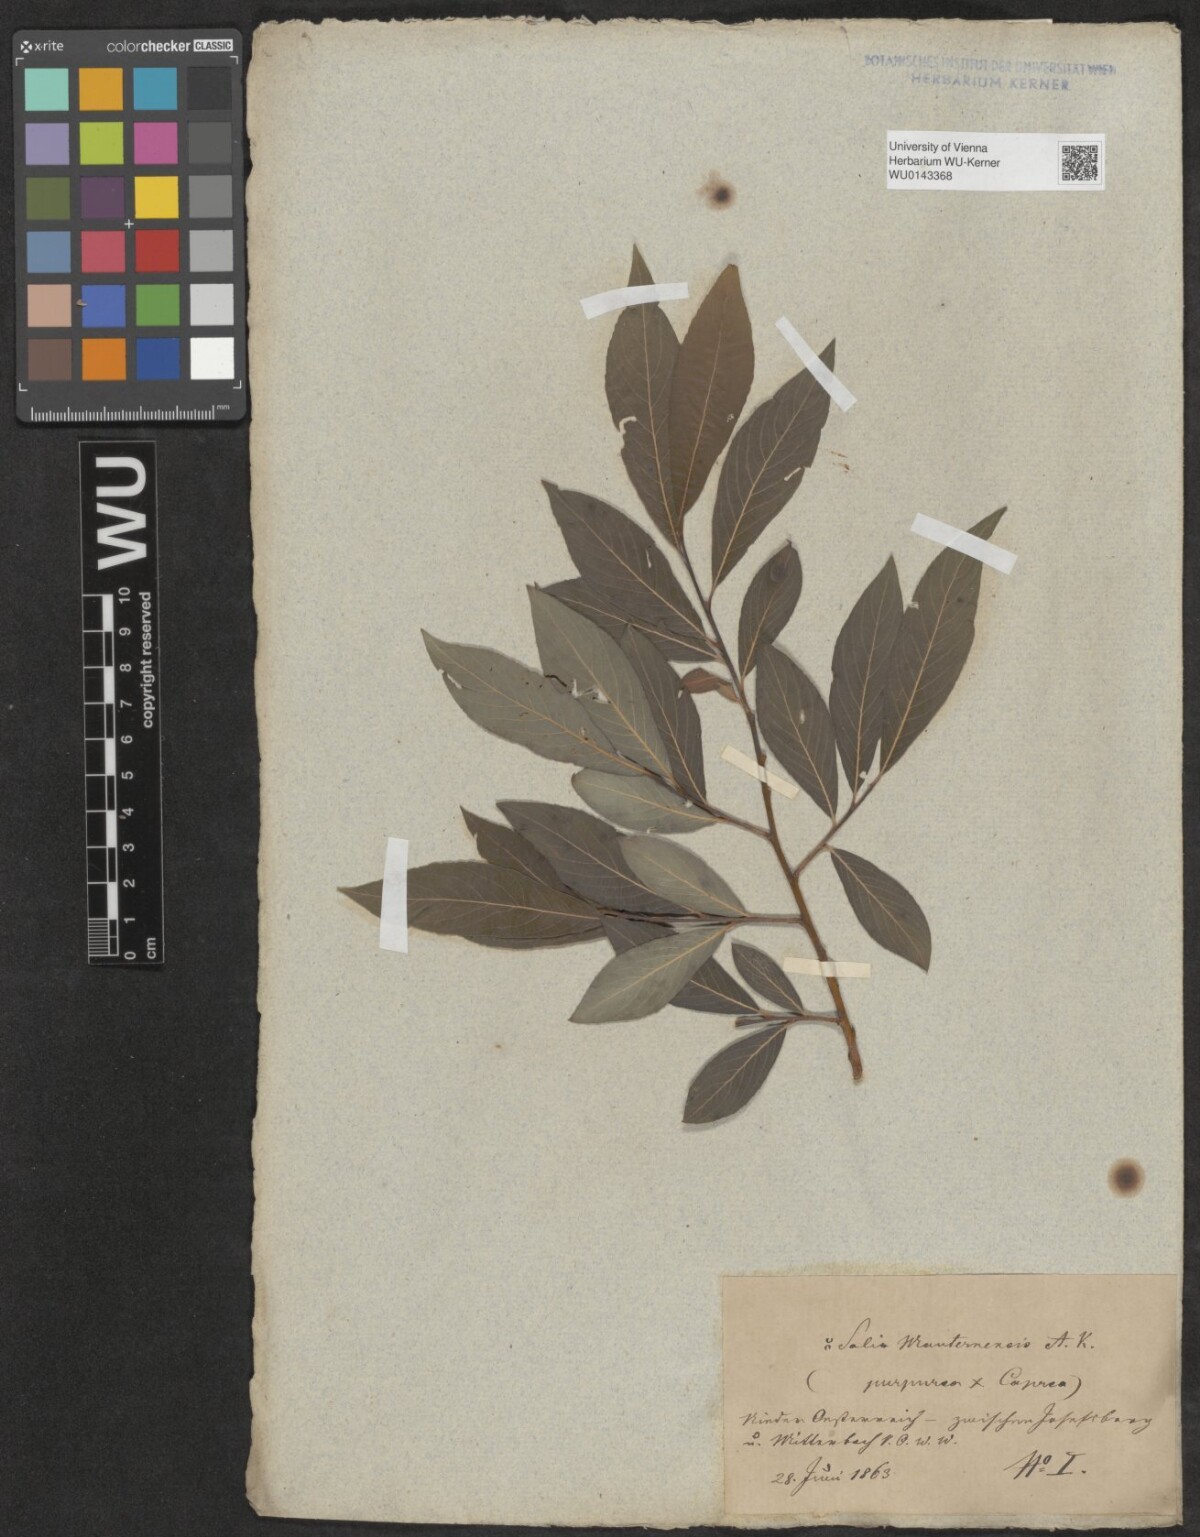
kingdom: Plantae
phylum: Tracheophyta
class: Magnoliopsida
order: Malpighiales
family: Salicaceae
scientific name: Salicaceae
